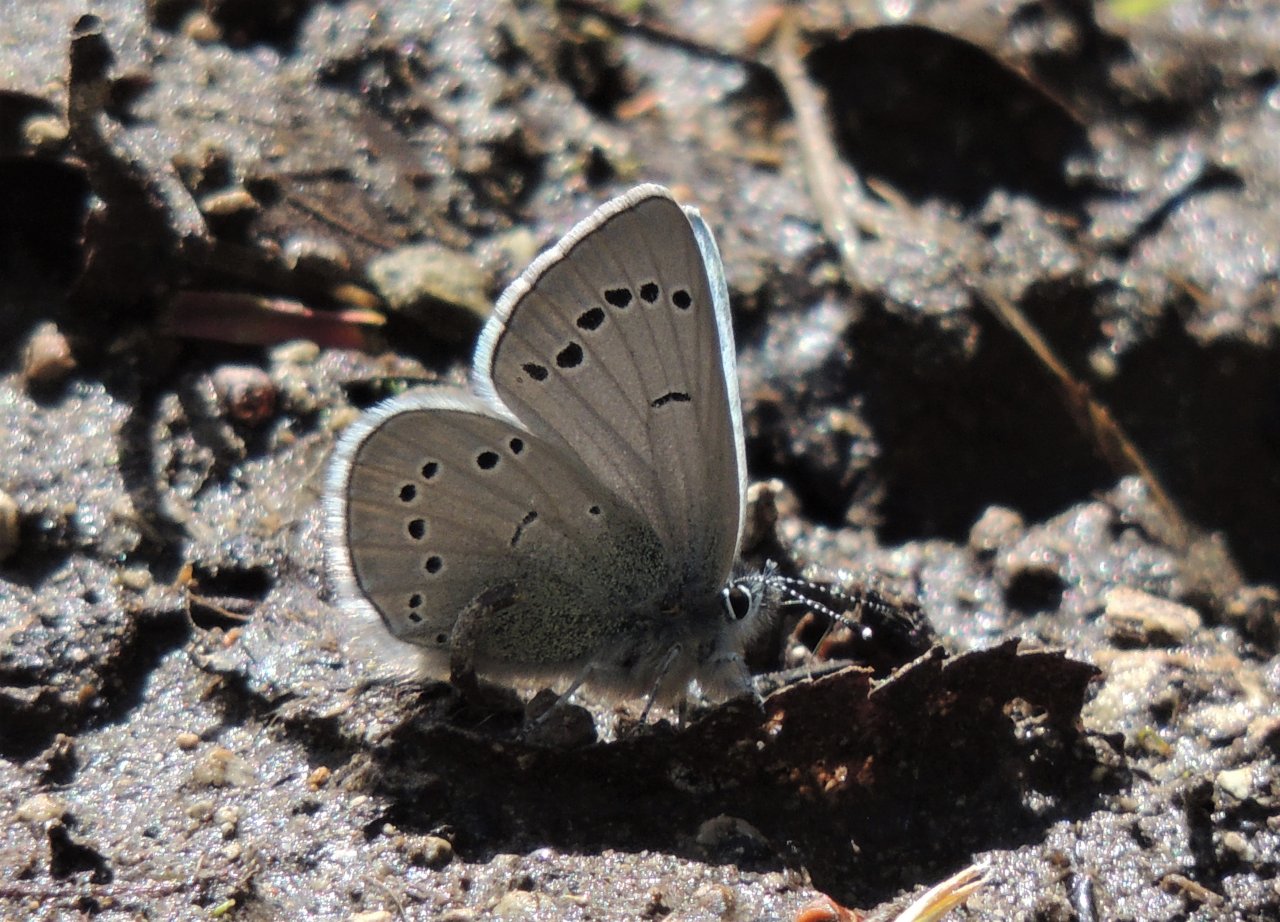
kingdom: Animalia
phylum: Arthropoda
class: Insecta
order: Lepidoptera
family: Lycaenidae
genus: Glaucopsyche
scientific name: Glaucopsyche lygdamus
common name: Silvery Blue
